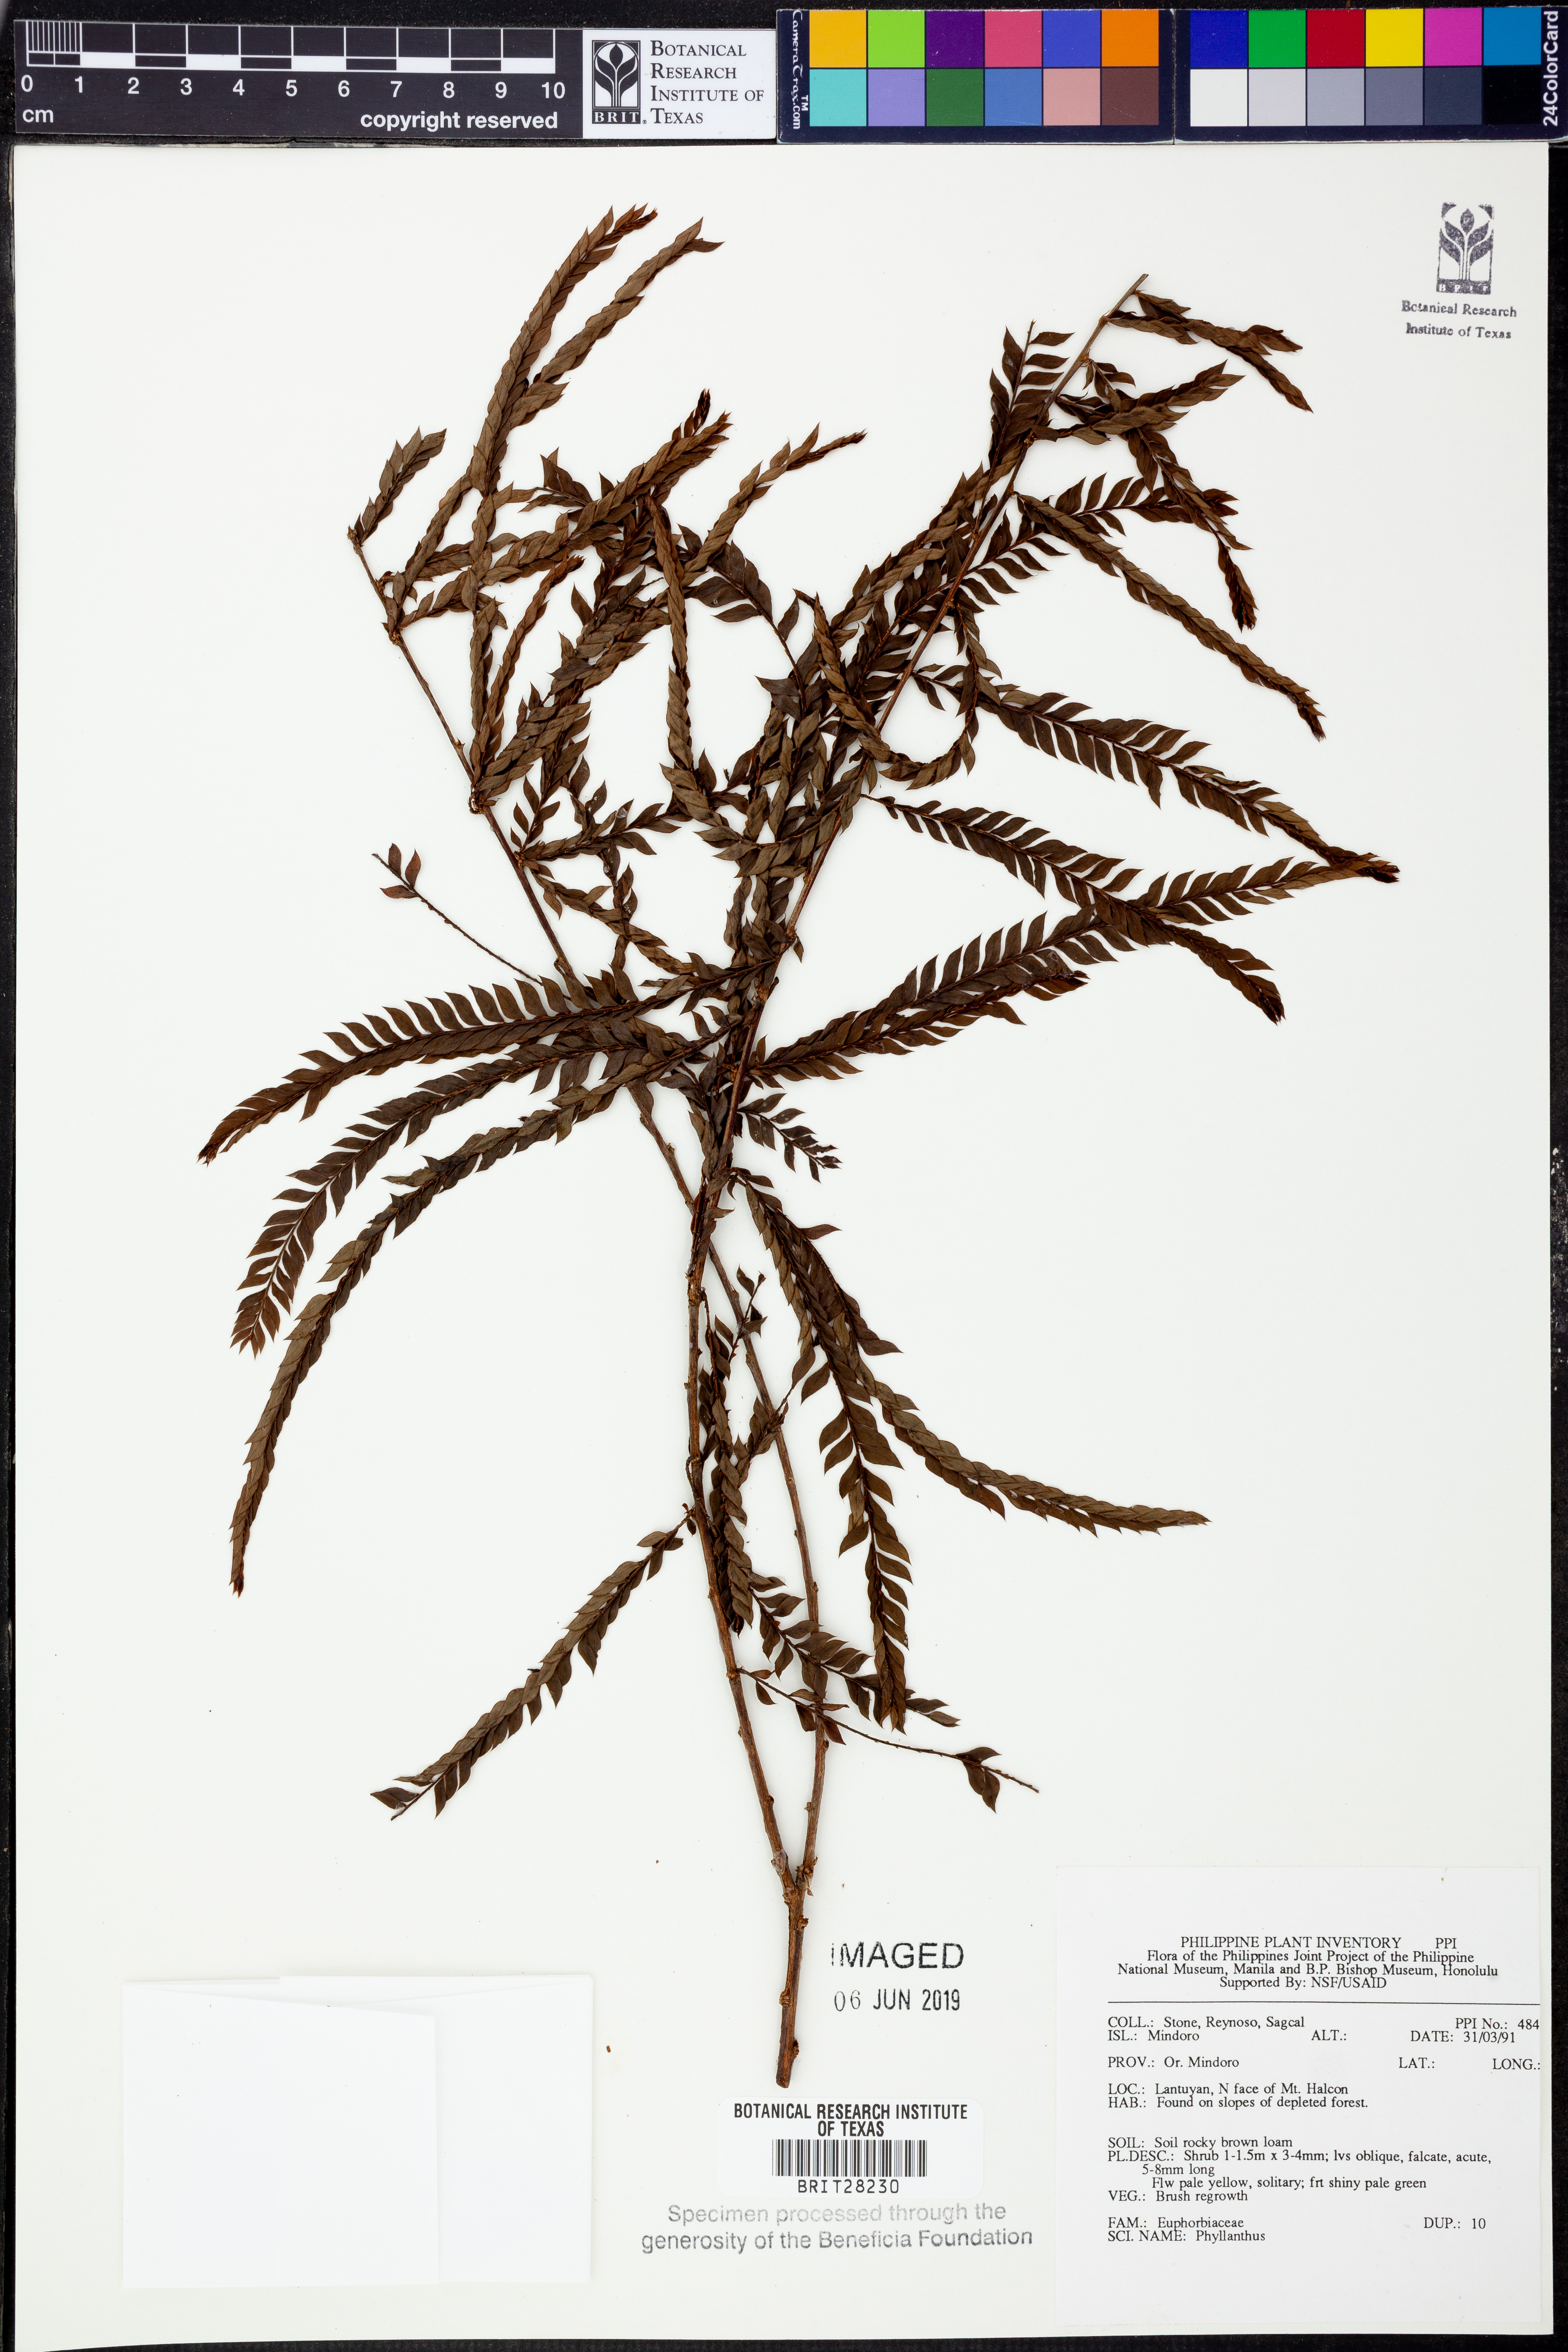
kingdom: Plantae
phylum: Tracheophyta
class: Magnoliopsida
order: Malpighiales
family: Phyllanthaceae
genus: Phyllanthus
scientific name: Phyllanthus
